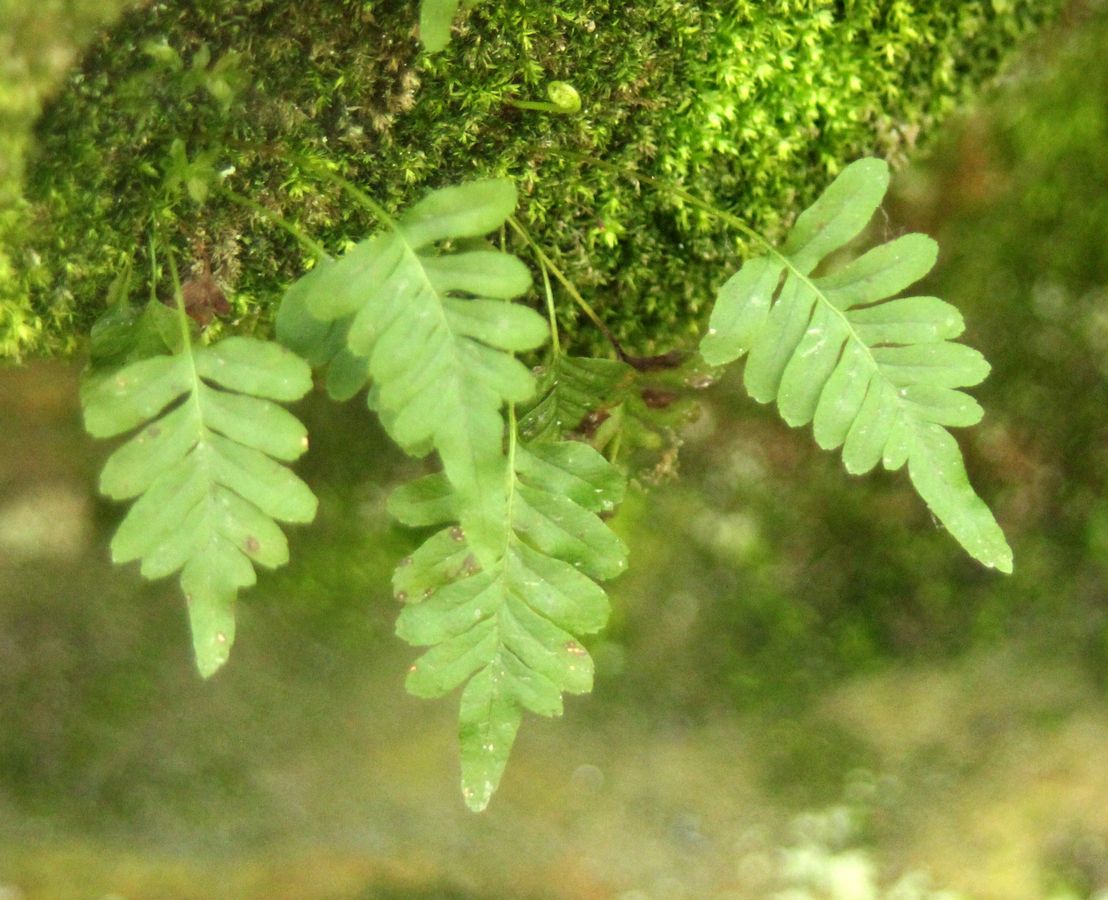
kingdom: Plantae
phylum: Tracheophyta
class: Polypodiopsida
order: Polypodiales
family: Polypodiaceae
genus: Polypodium
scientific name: Polypodium vulgare
